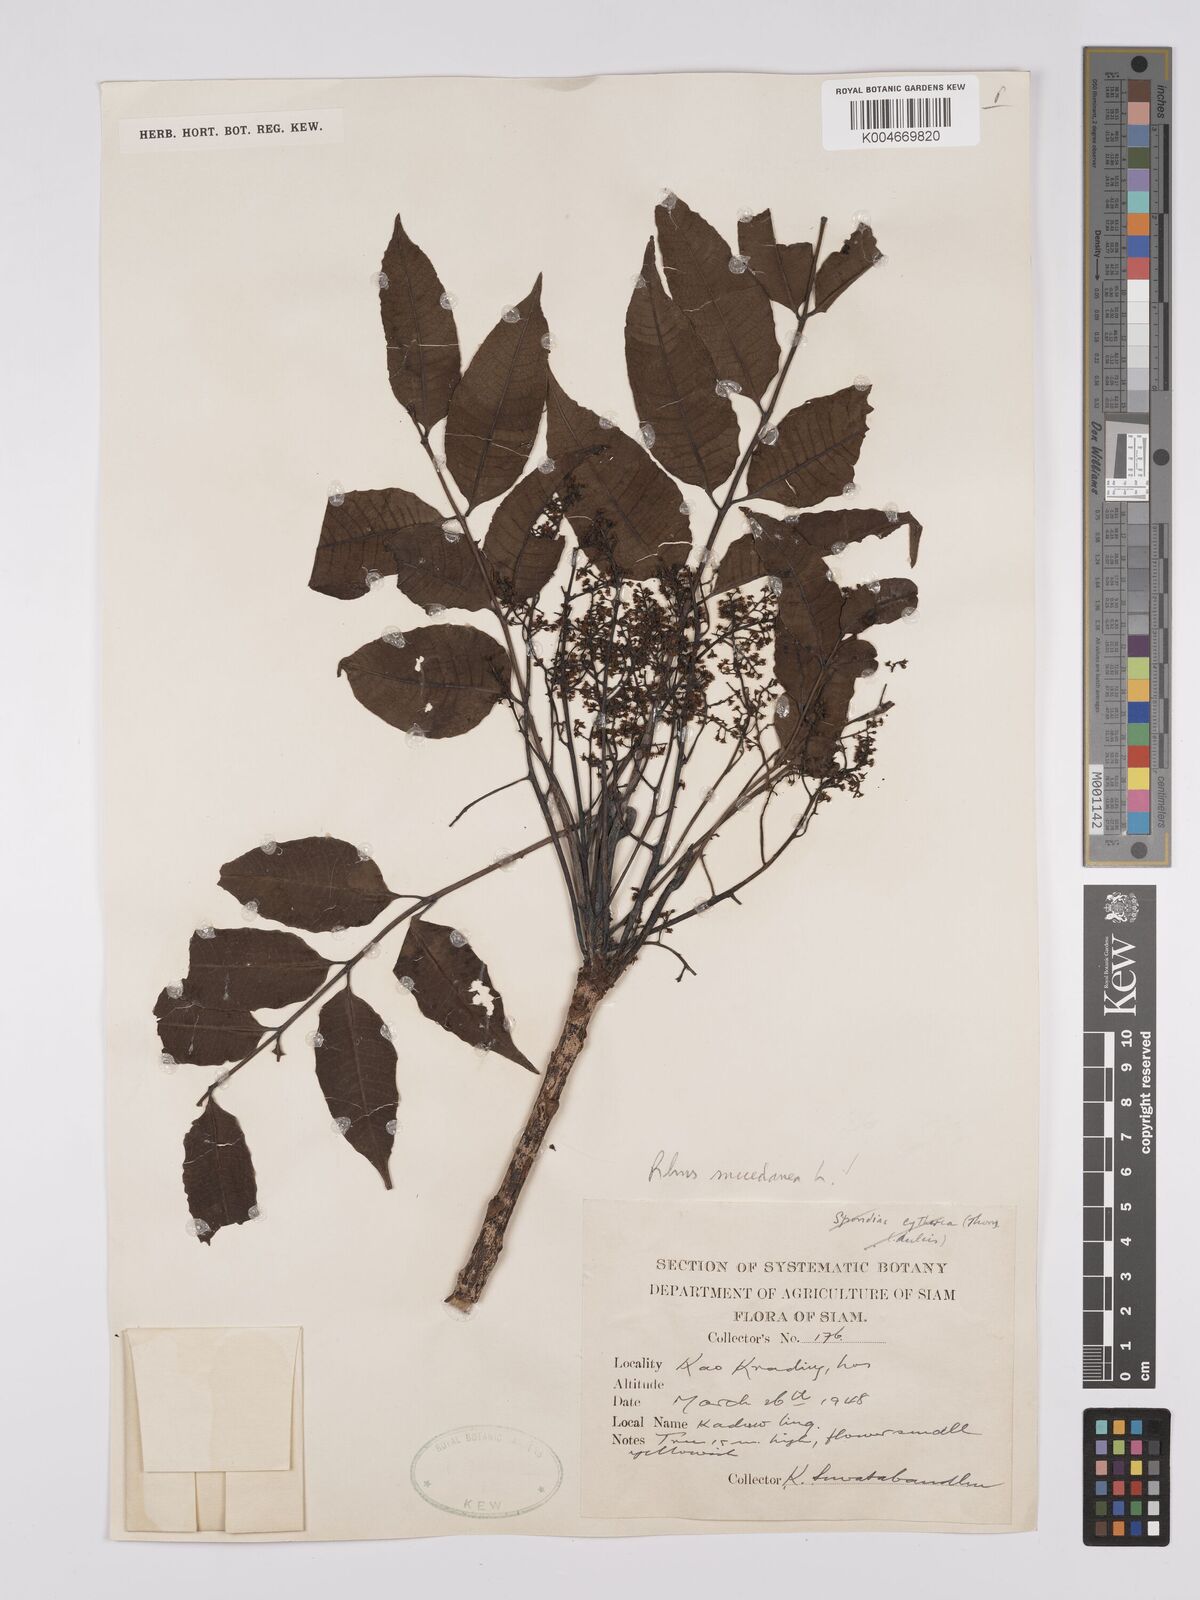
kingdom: Plantae
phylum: Tracheophyta
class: Magnoliopsida
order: Sapindales
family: Anacardiaceae
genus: Toxicodendron
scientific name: Toxicodendron succedaneum
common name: Wax tree
